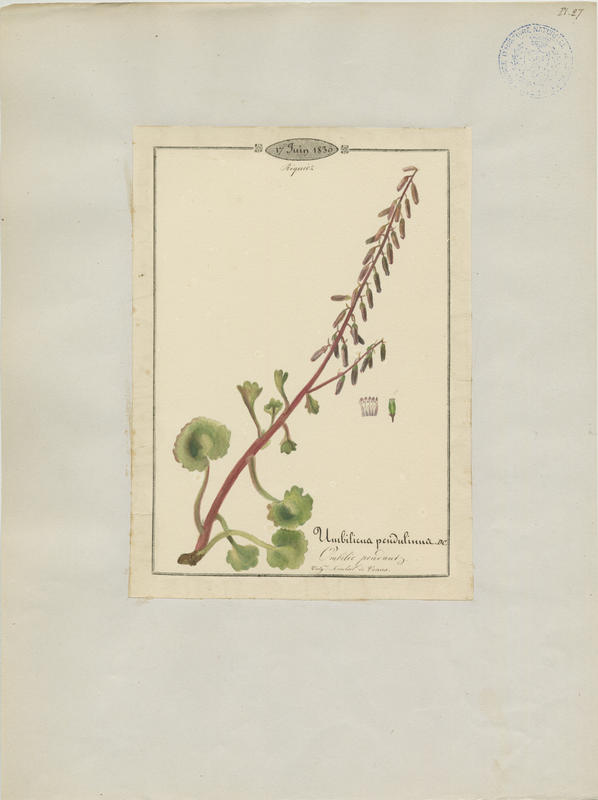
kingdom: Plantae
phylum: Tracheophyta
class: Magnoliopsida
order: Saxifragales
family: Crassulaceae
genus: Umbilicus
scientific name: Umbilicus rupestris
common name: Navelwort
